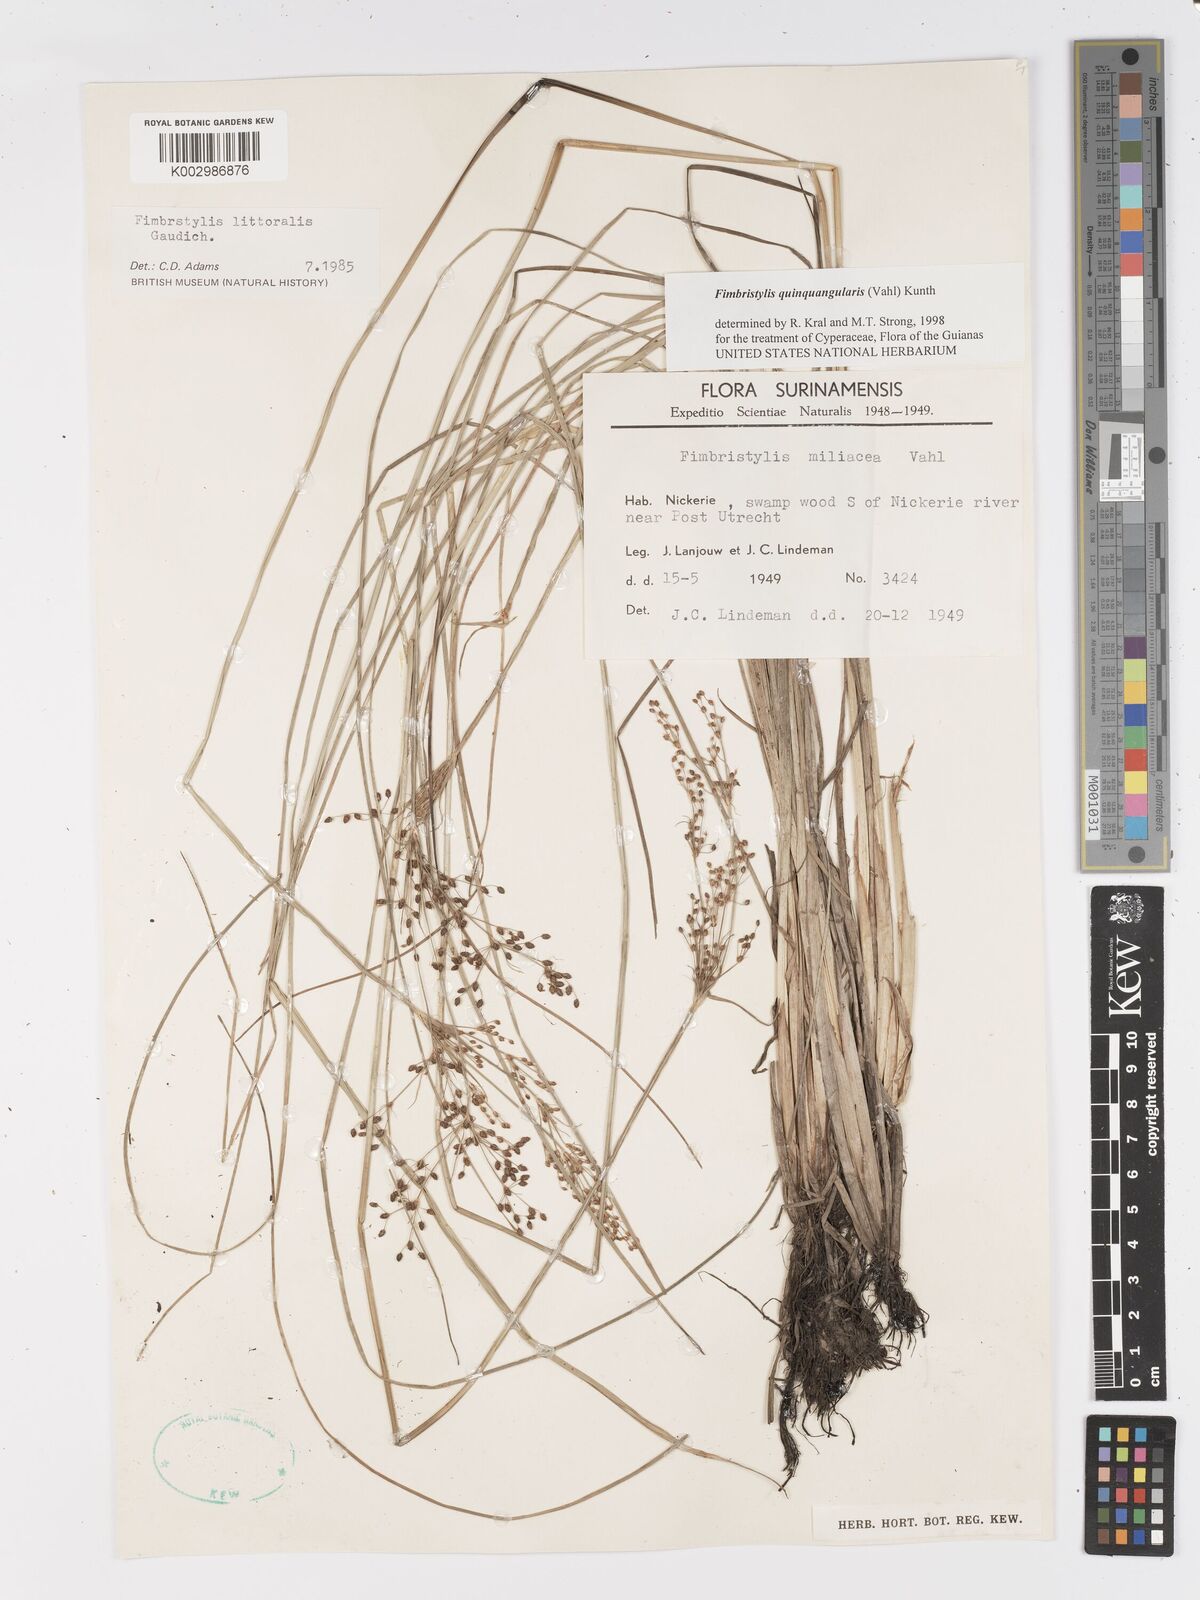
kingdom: Plantae
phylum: Tracheophyta
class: Liliopsida
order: Poales
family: Cyperaceae
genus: Fimbristylis
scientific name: Fimbristylis quinquangularis
